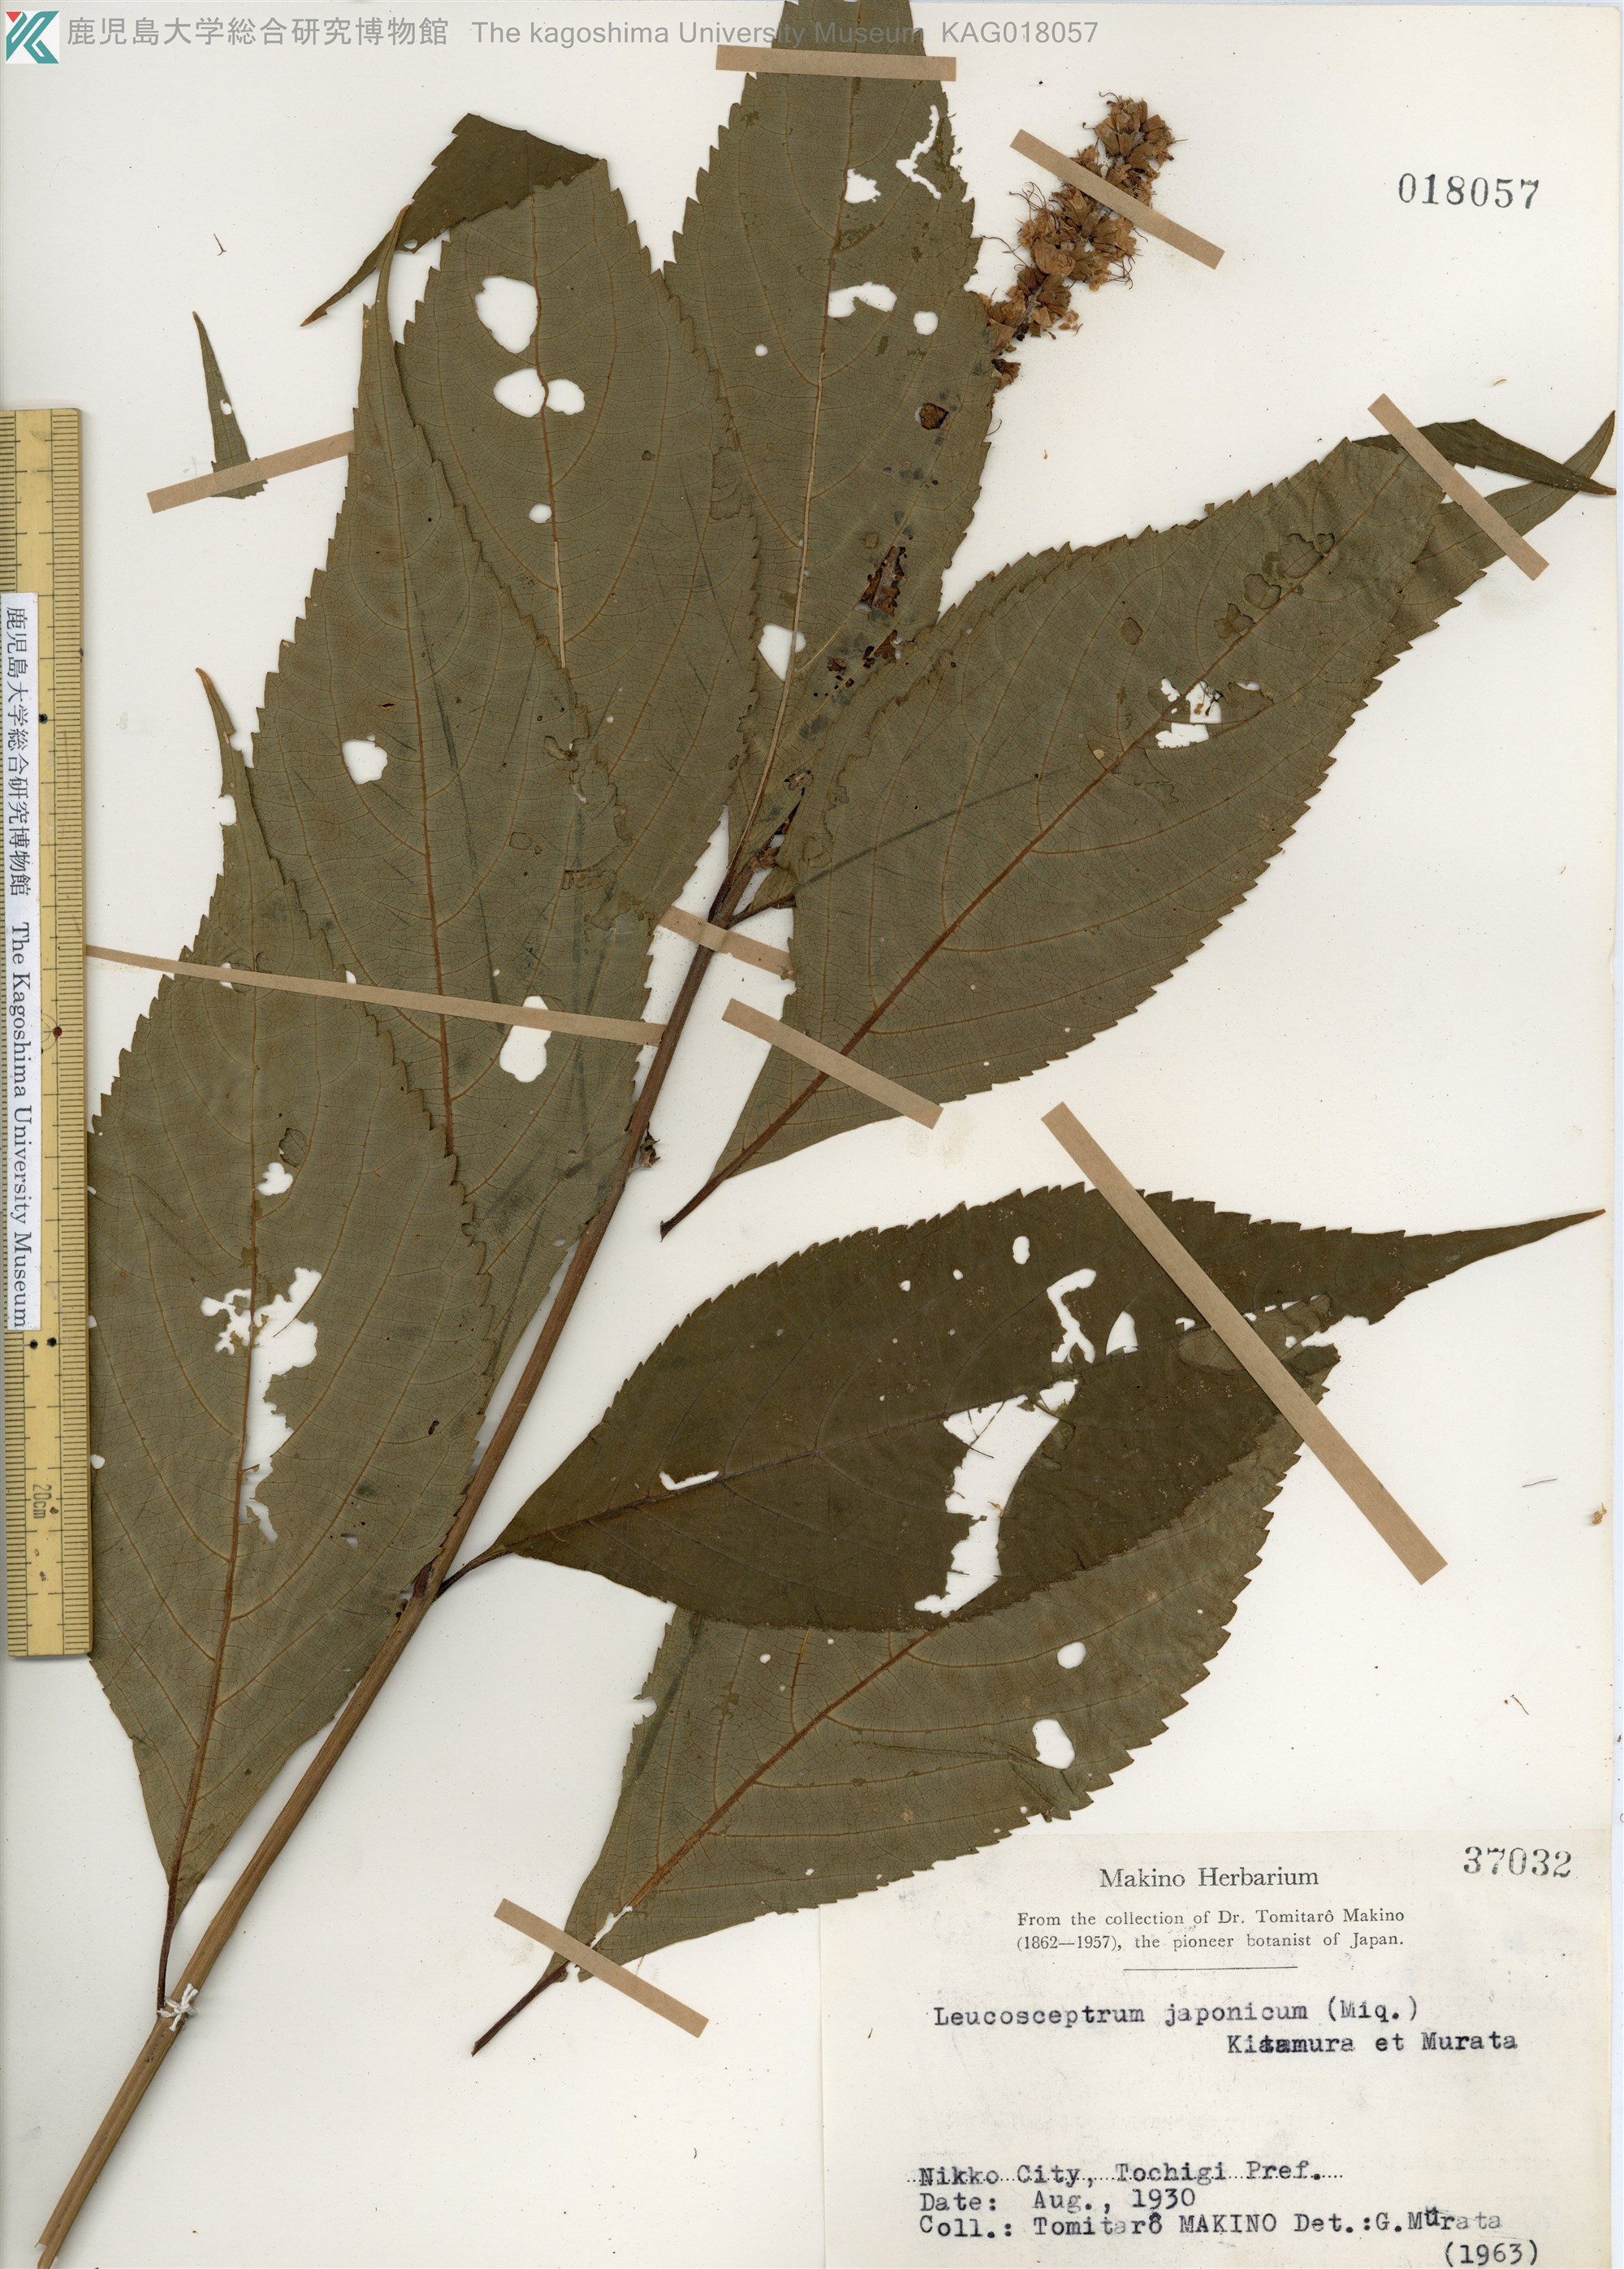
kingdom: Plantae
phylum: Tracheophyta
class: Magnoliopsida
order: Lamiales
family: Lamiaceae
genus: Comanthosphace
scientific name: Comanthosphace japonica
